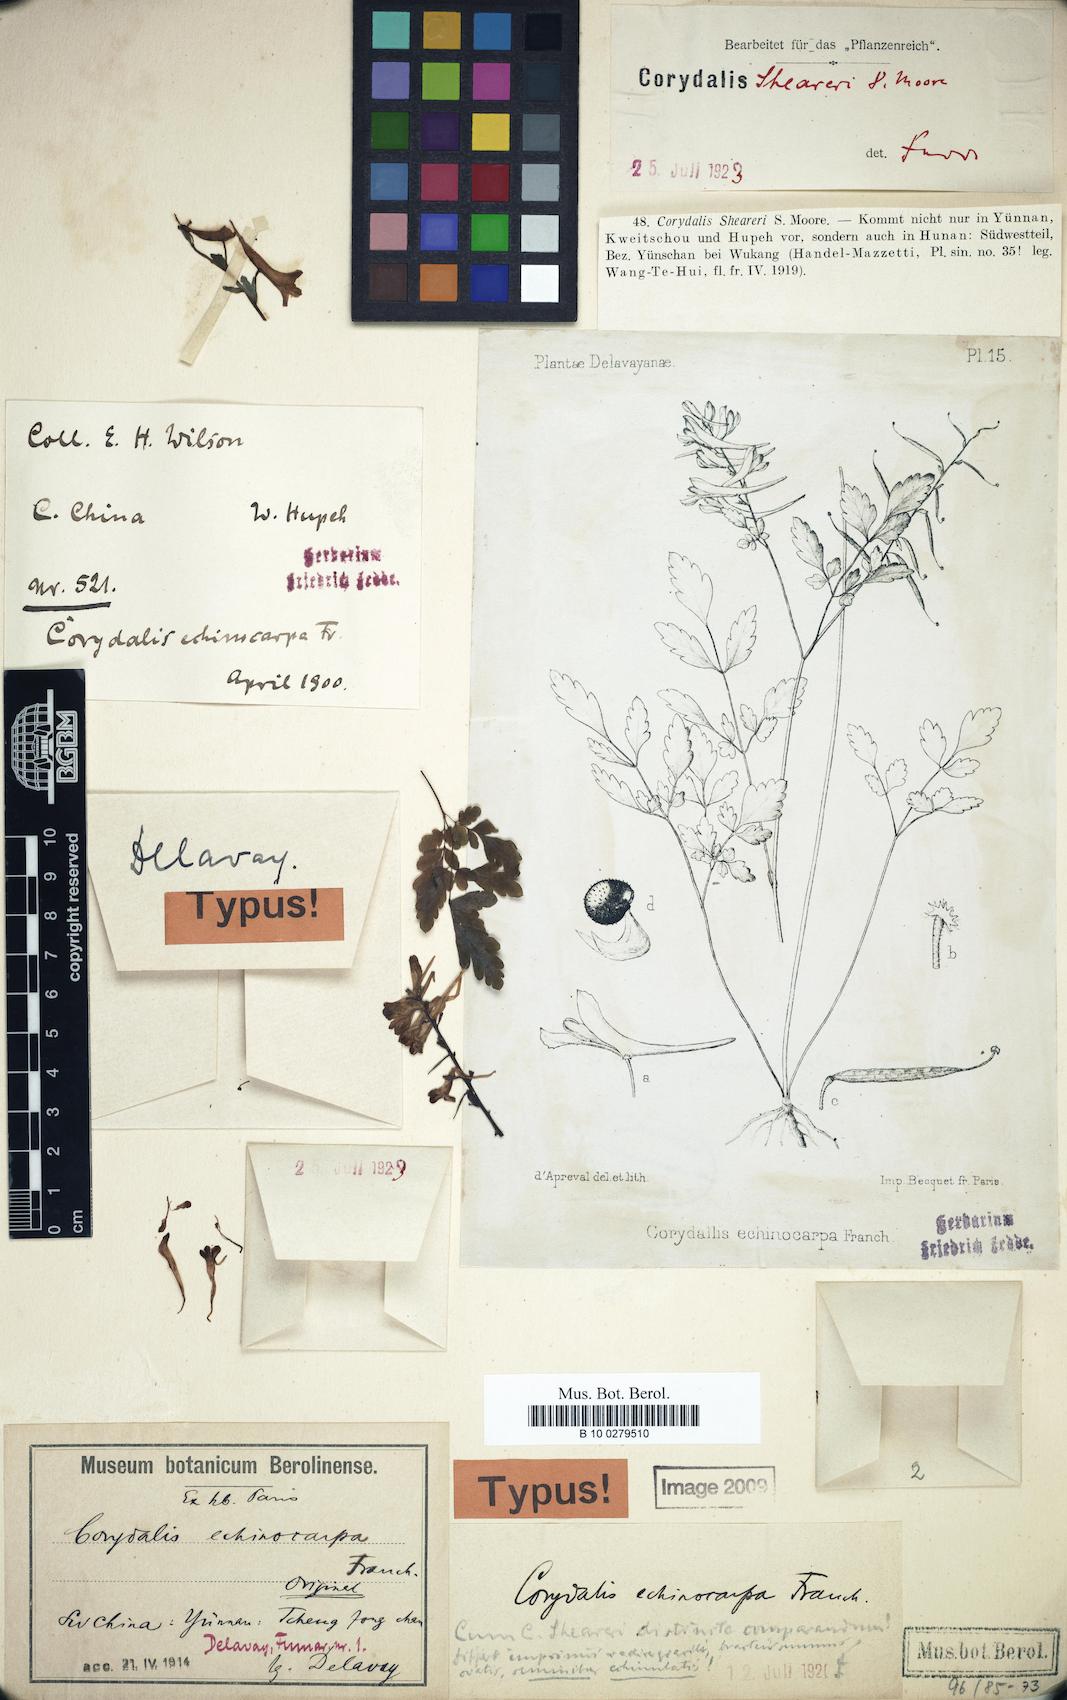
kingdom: Plantae
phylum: Tracheophyta
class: Magnoliopsida
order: Ranunculales
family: Papaveraceae
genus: Corydalis
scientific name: Corydalis sheareri
